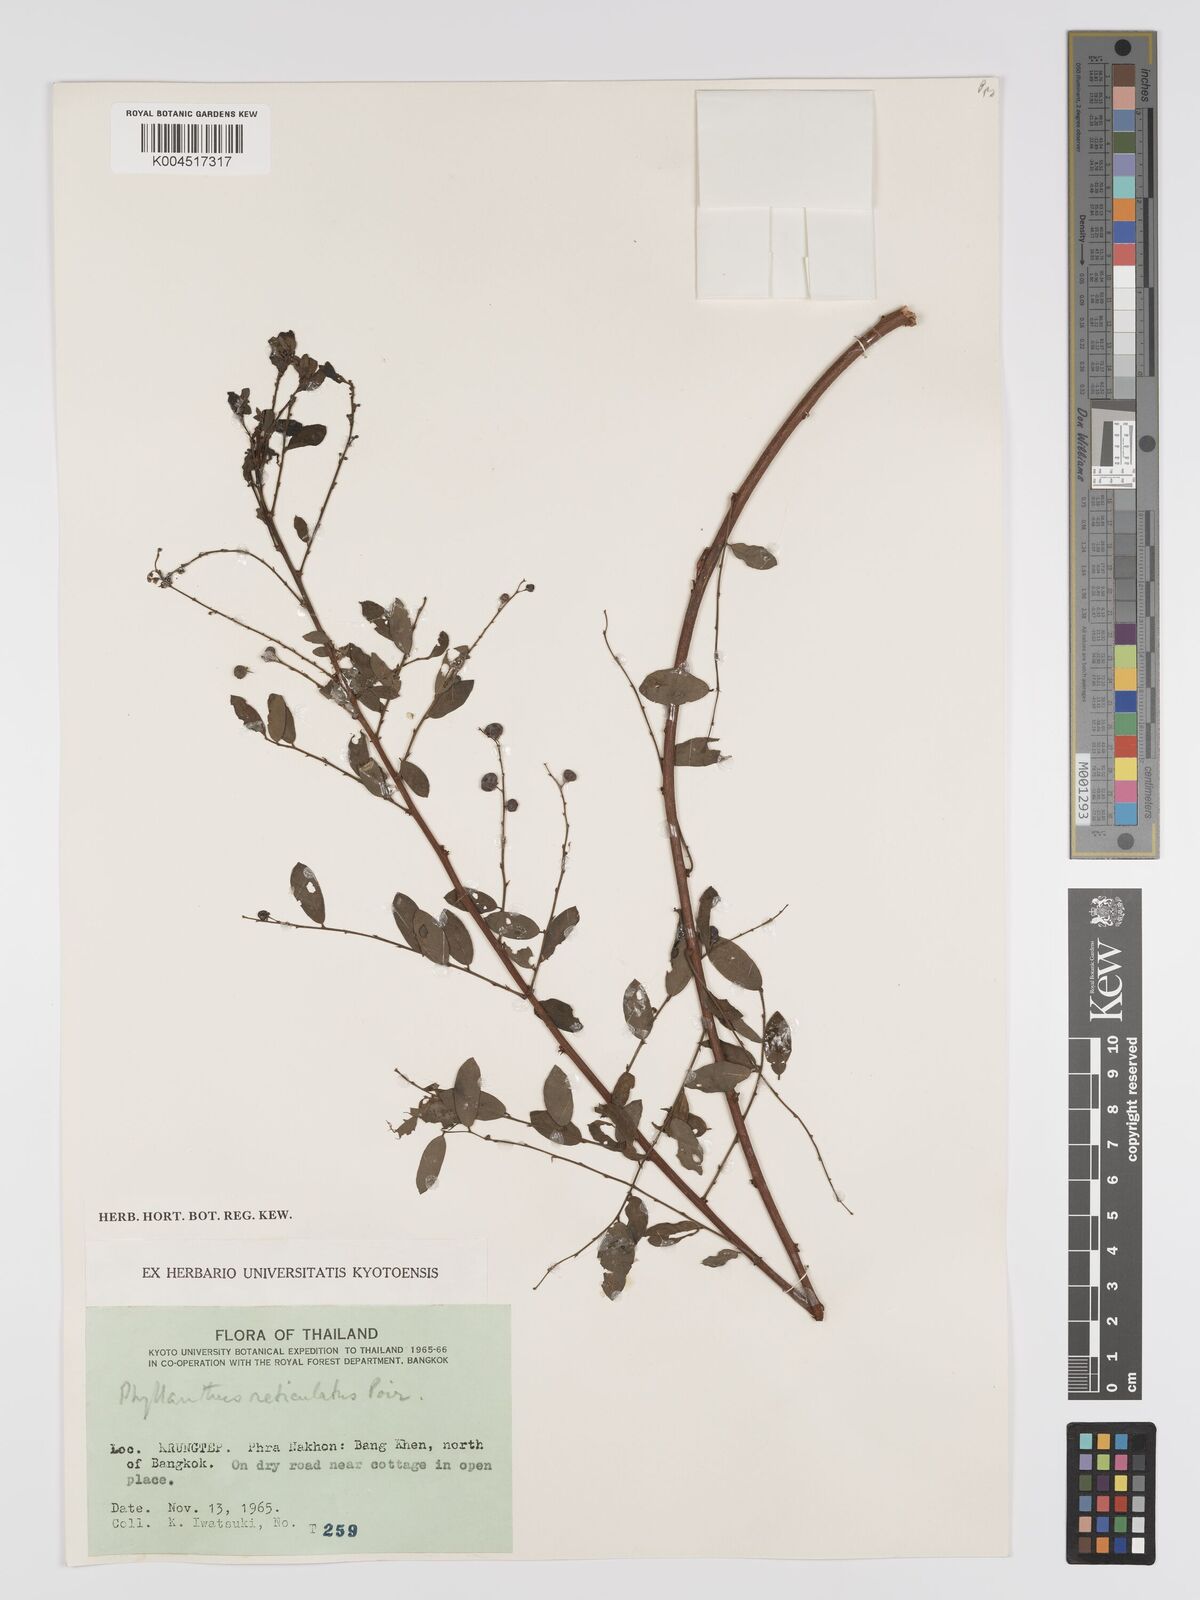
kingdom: Plantae
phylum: Tracheophyta
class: Magnoliopsida
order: Malpighiales
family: Phyllanthaceae
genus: Phyllanthus
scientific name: Phyllanthus reticulatus
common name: Potato bush
